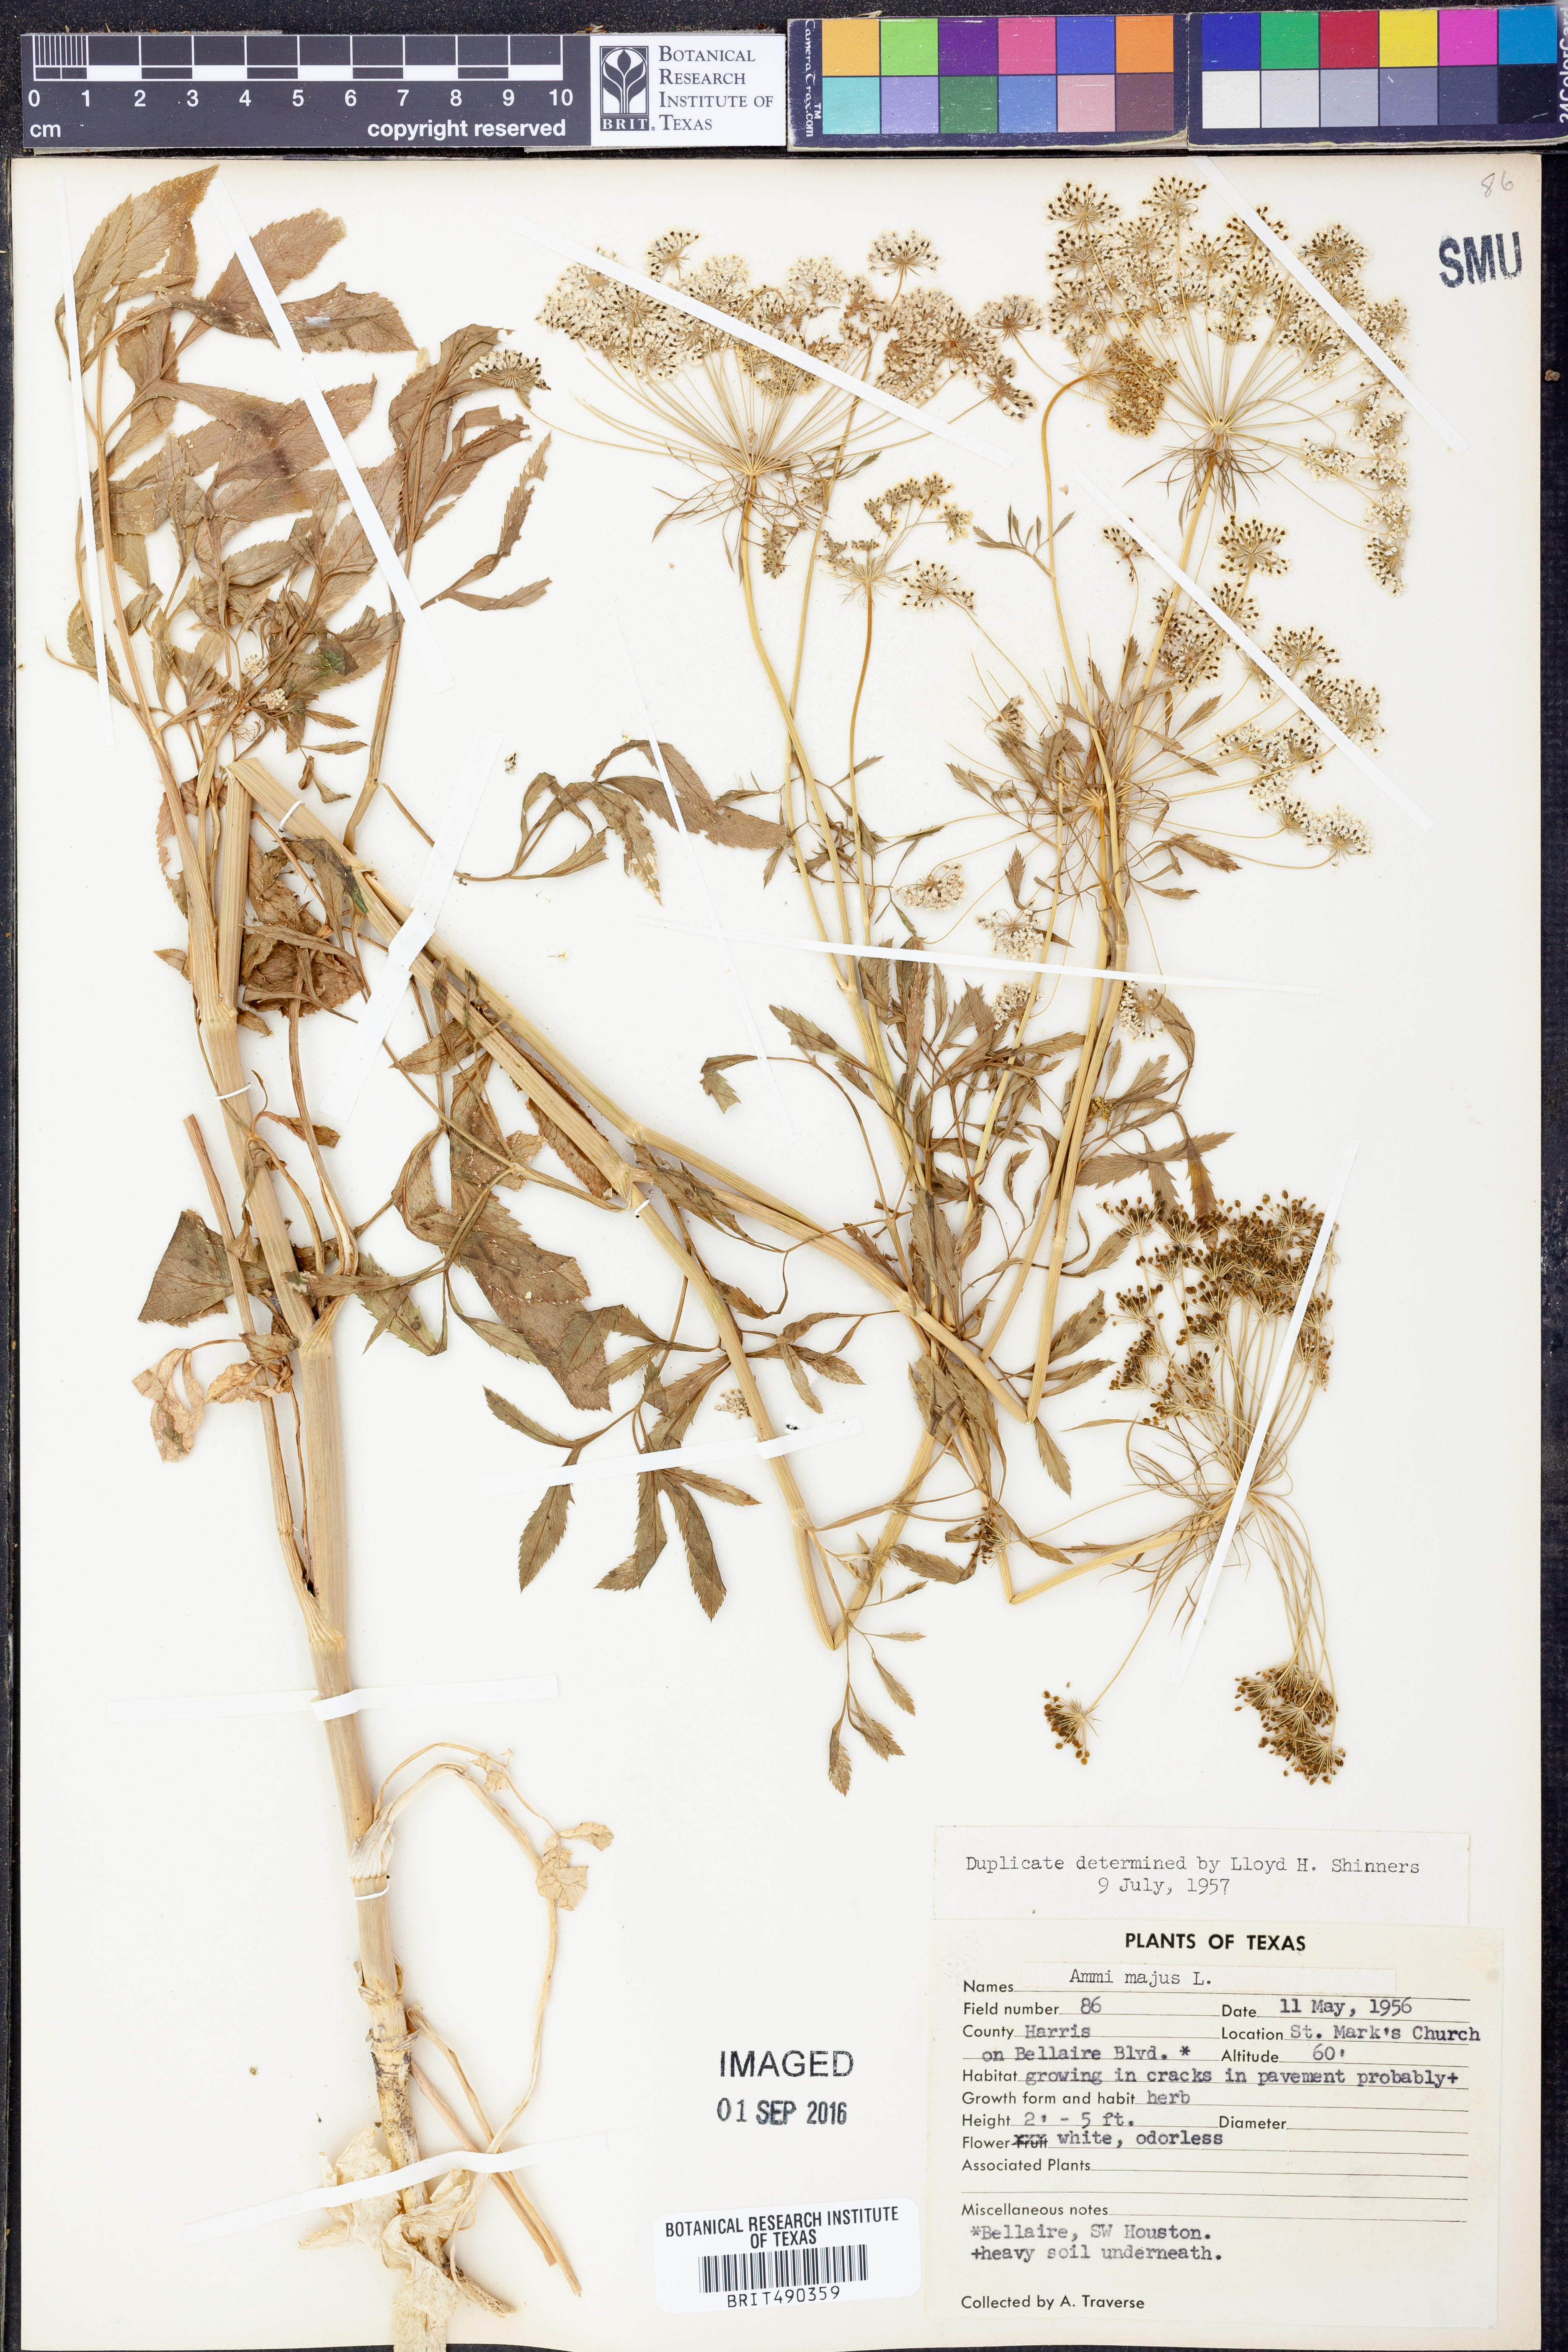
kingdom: Plantae
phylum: Tracheophyta
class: Magnoliopsida
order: Apiales
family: Apiaceae
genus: Ammi
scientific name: Ammi majus
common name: Bullwort
